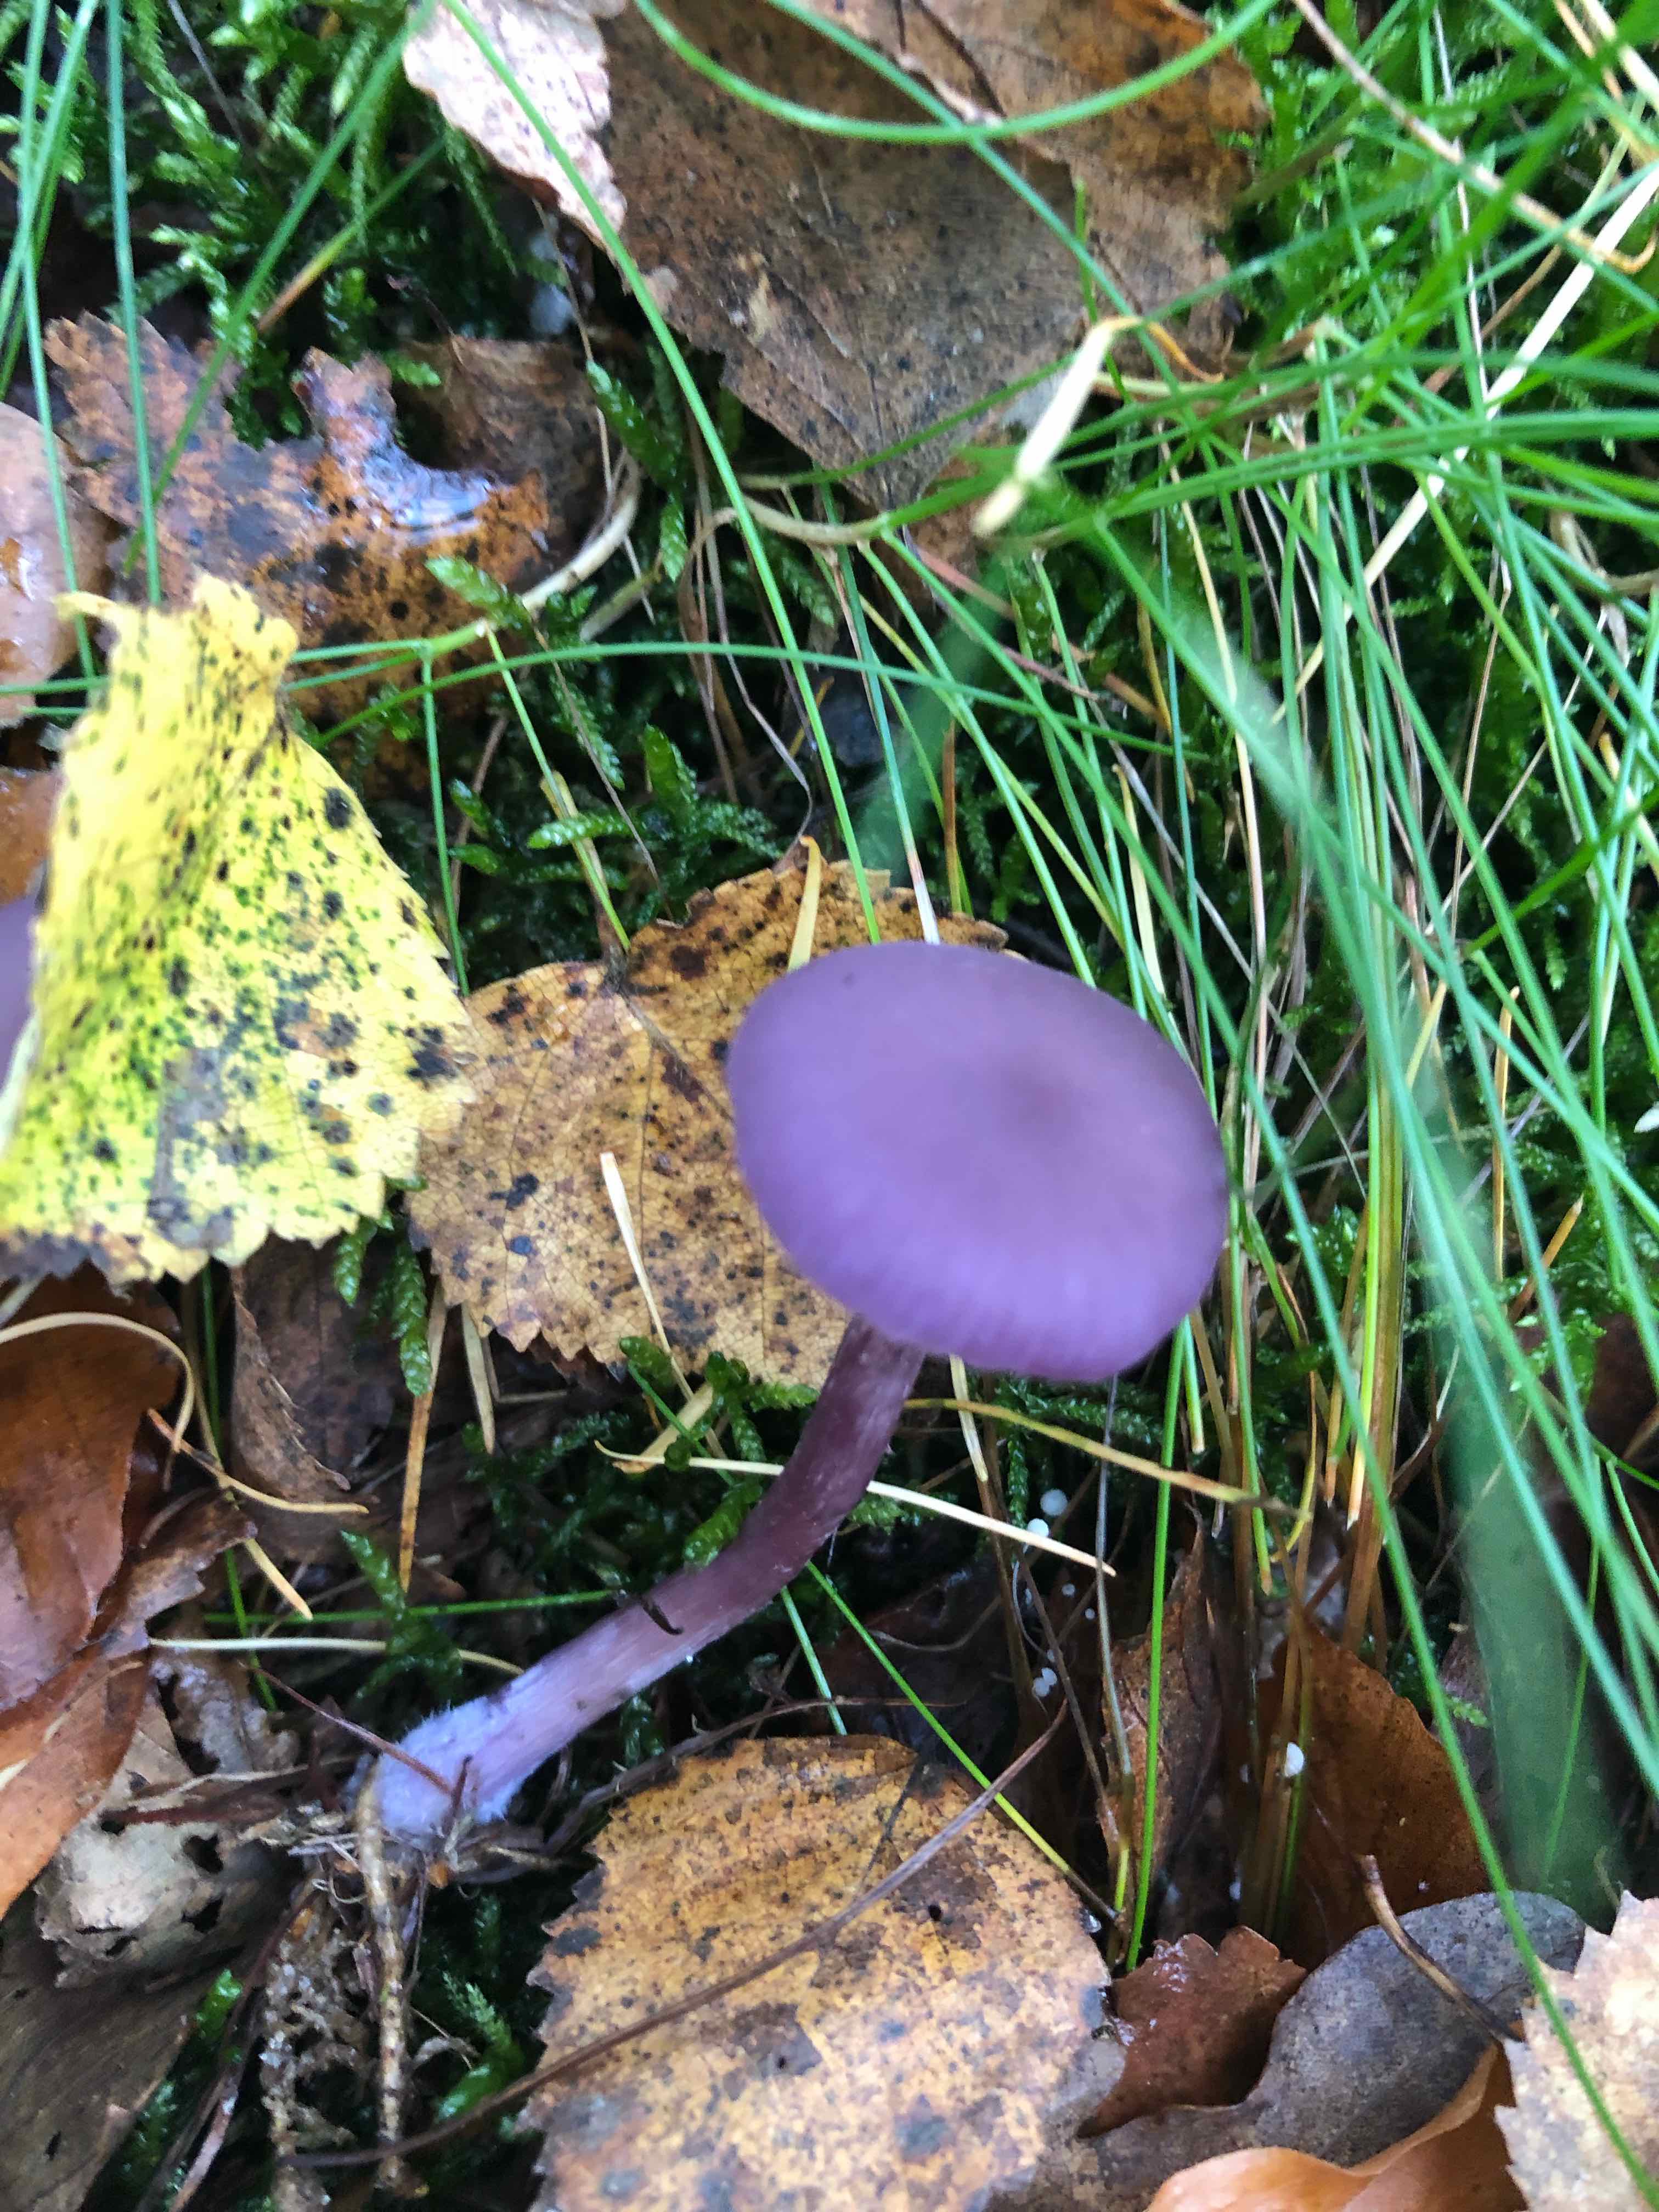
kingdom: Fungi
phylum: Basidiomycota
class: Agaricomycetes
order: Agaricales
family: Hydnangiaceae
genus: Laccaria
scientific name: Laccaria amethystina
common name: violet ametysthat
